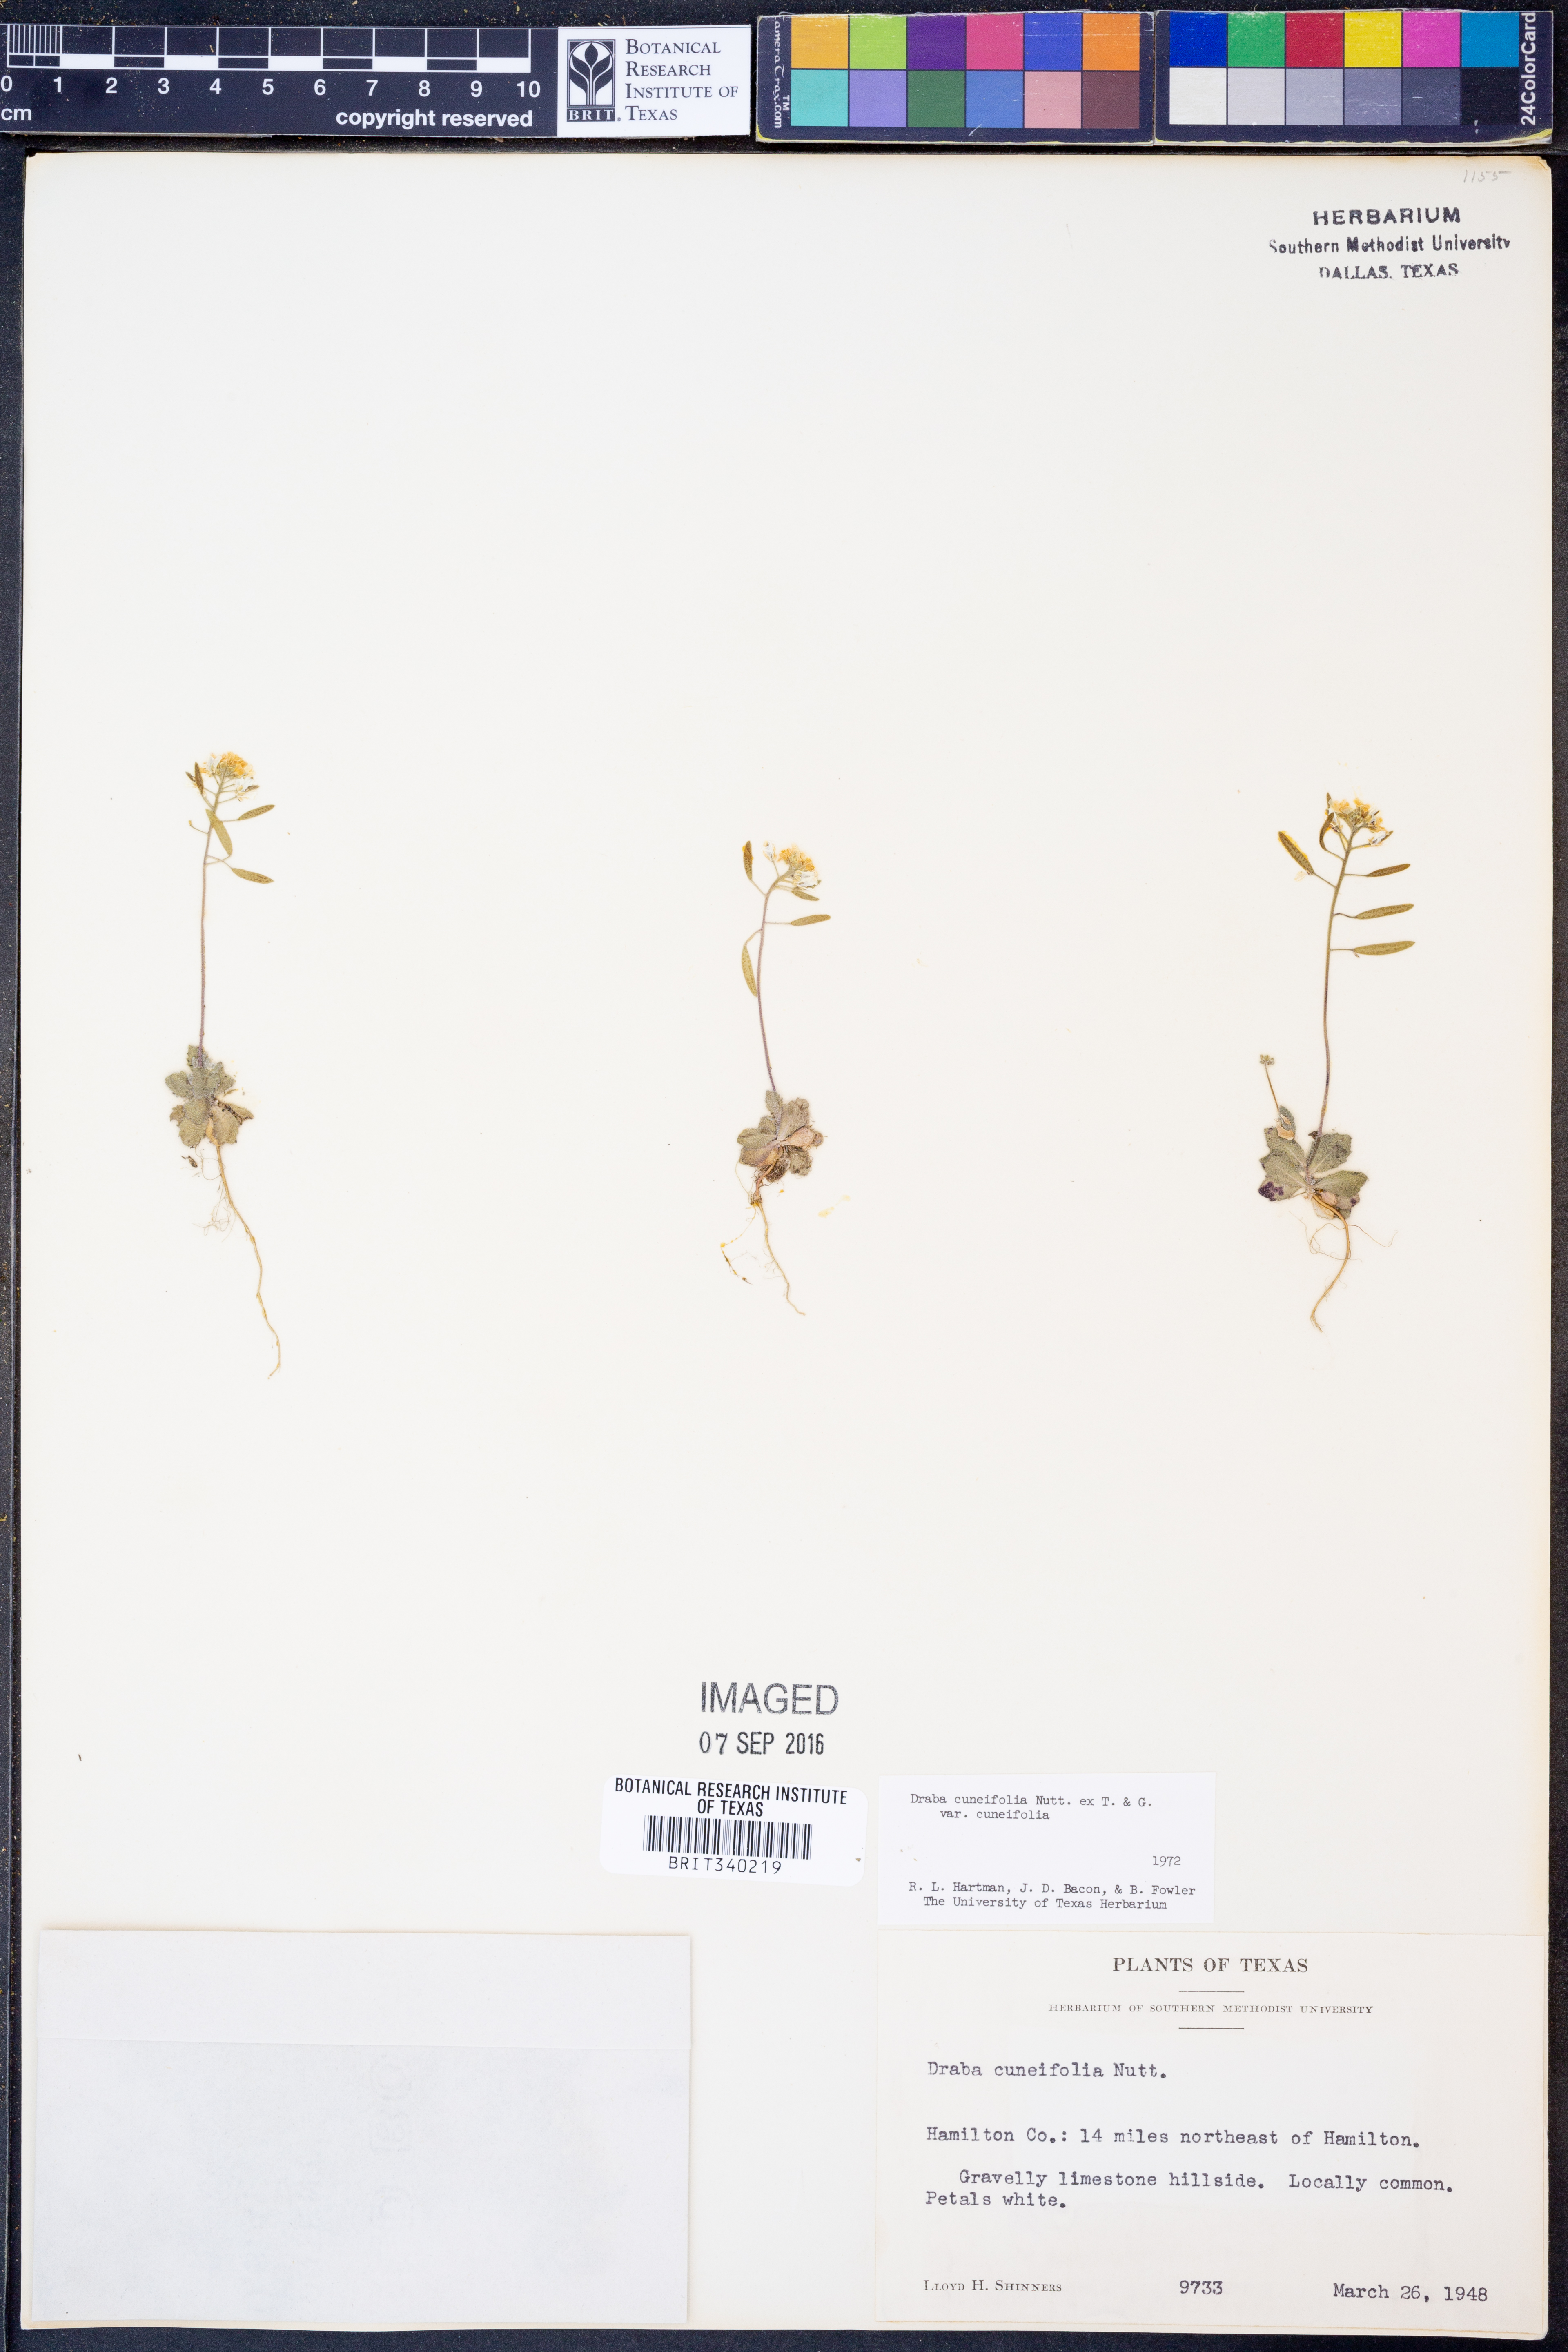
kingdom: Plantae
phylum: Tracheophyta
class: Magnoliopsida
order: Brassicales
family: Brassicaceae
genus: Tomostima
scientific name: Tomostima cuneifolia
